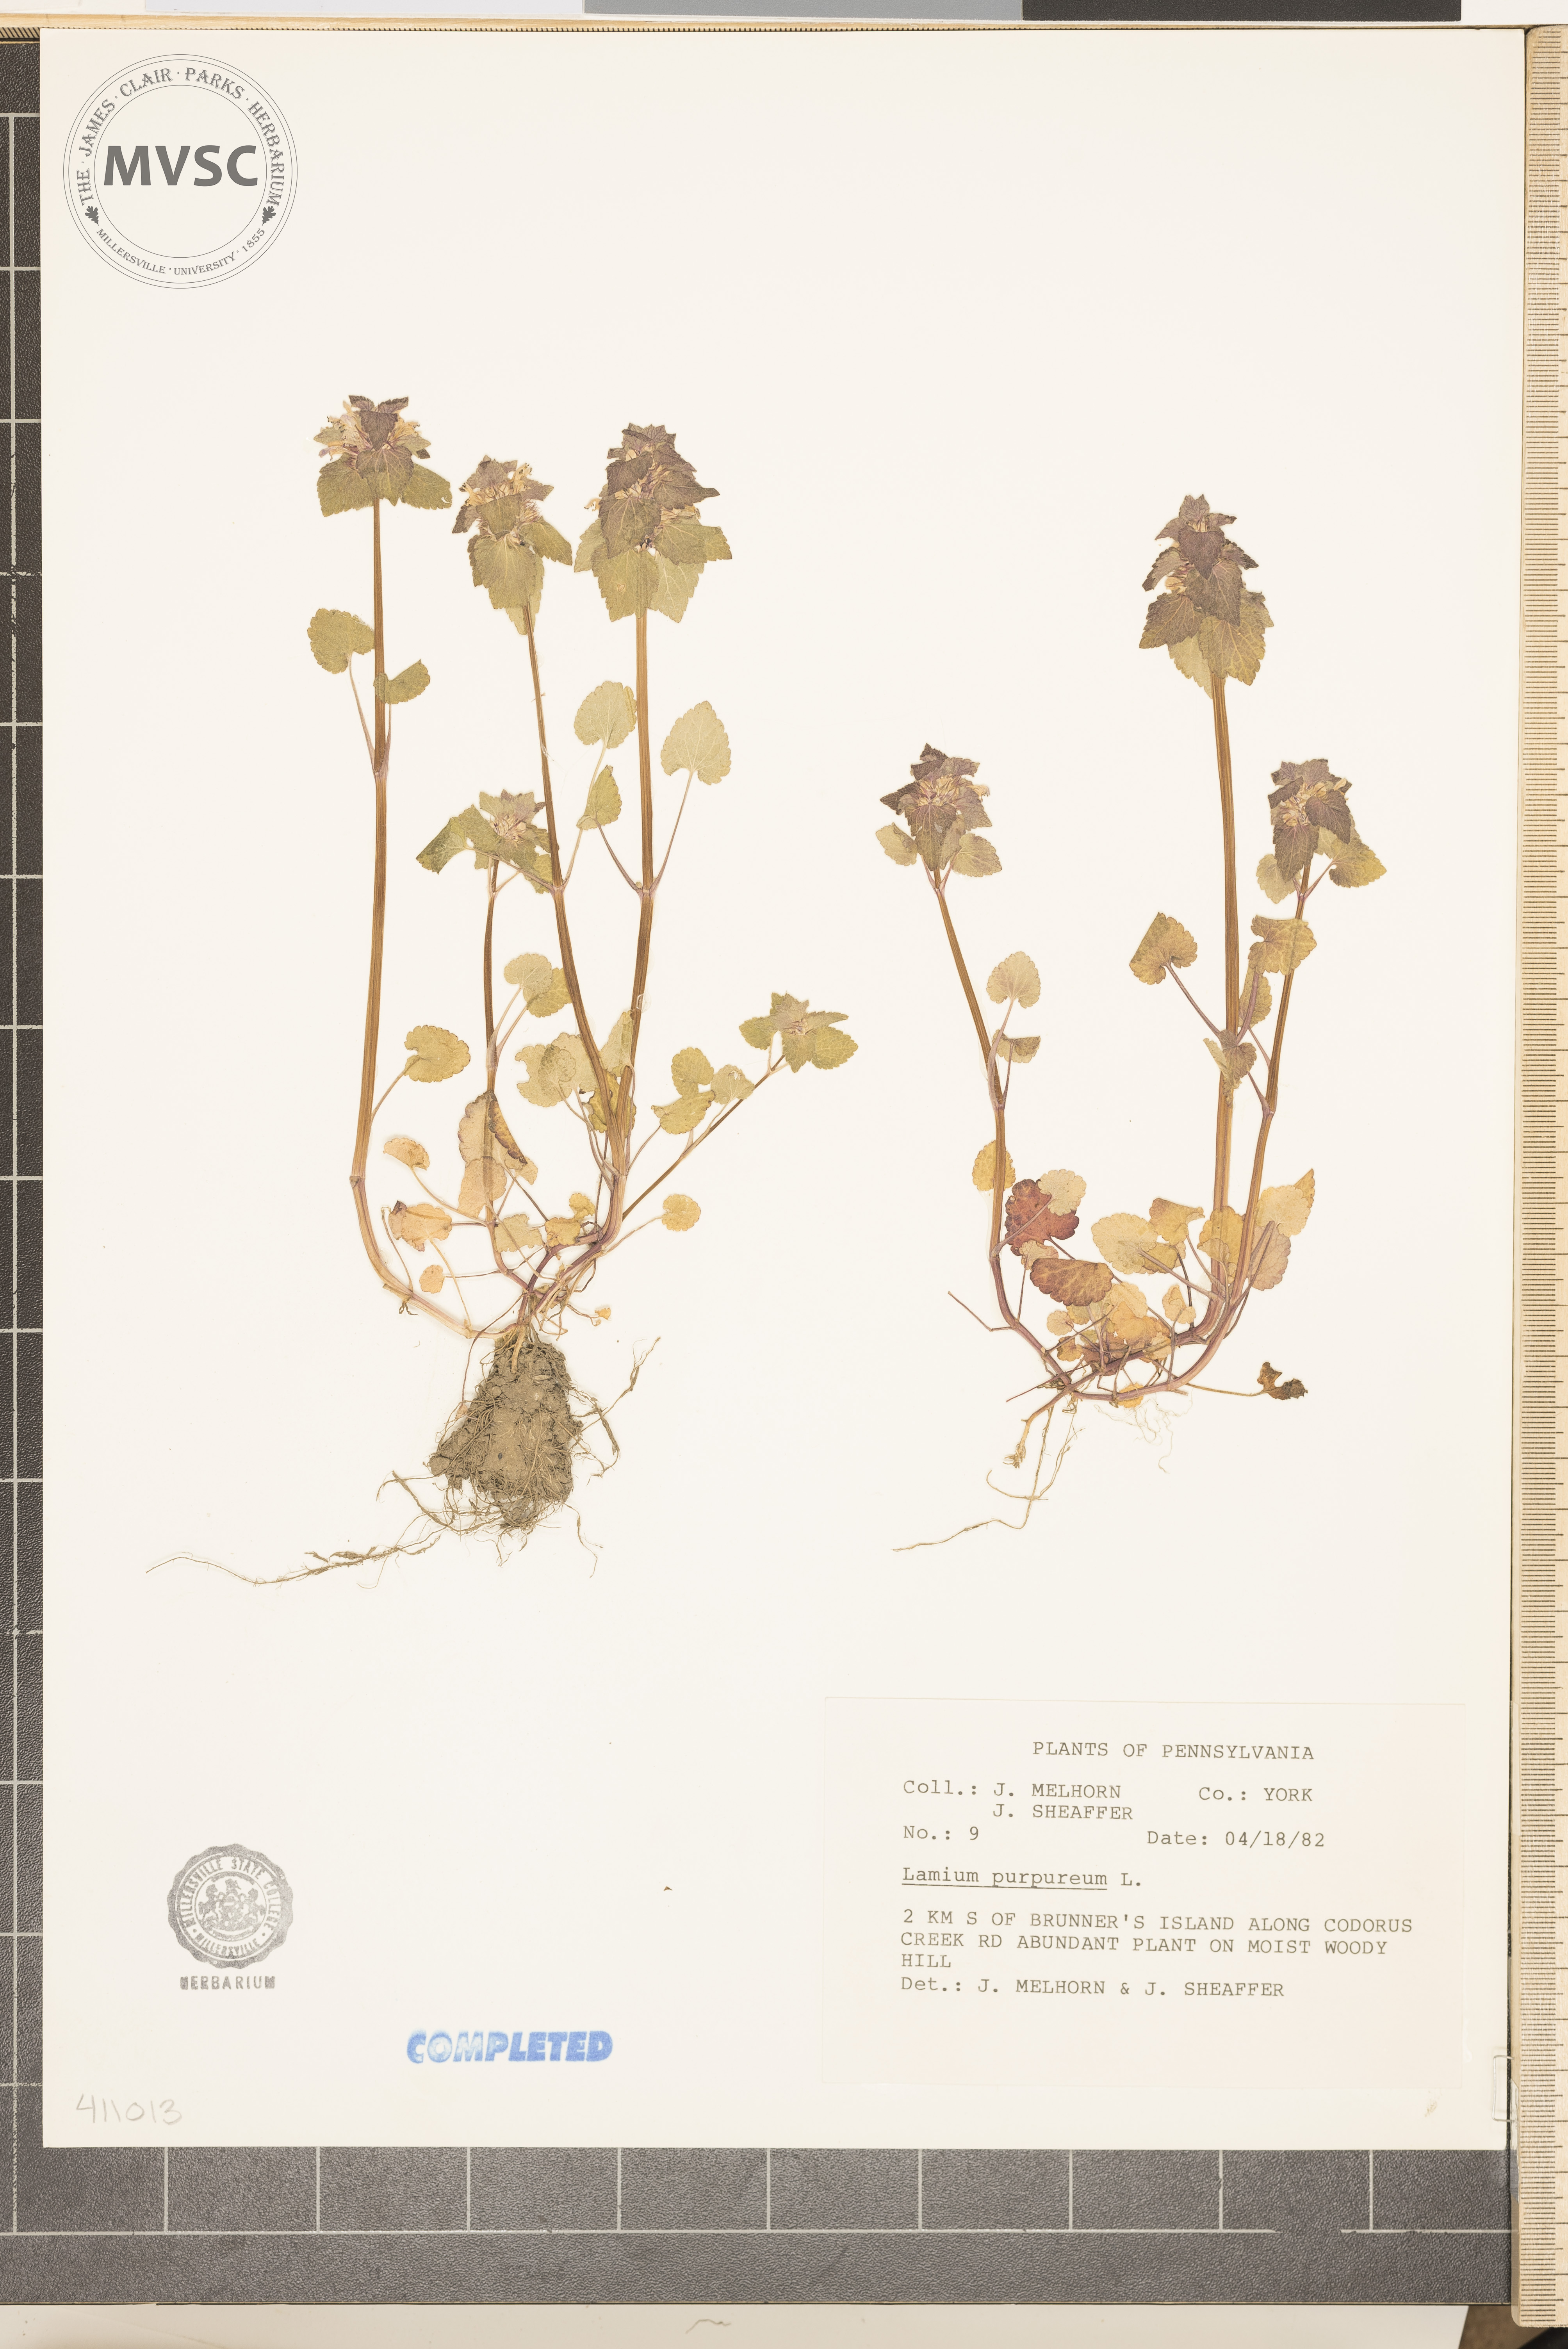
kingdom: Plantae
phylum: Tracheophyta
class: Magnoliopsida
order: Lamiales
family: Lamiaceae
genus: Lamium
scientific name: Lamium purpureum
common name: purple dead-nettle
